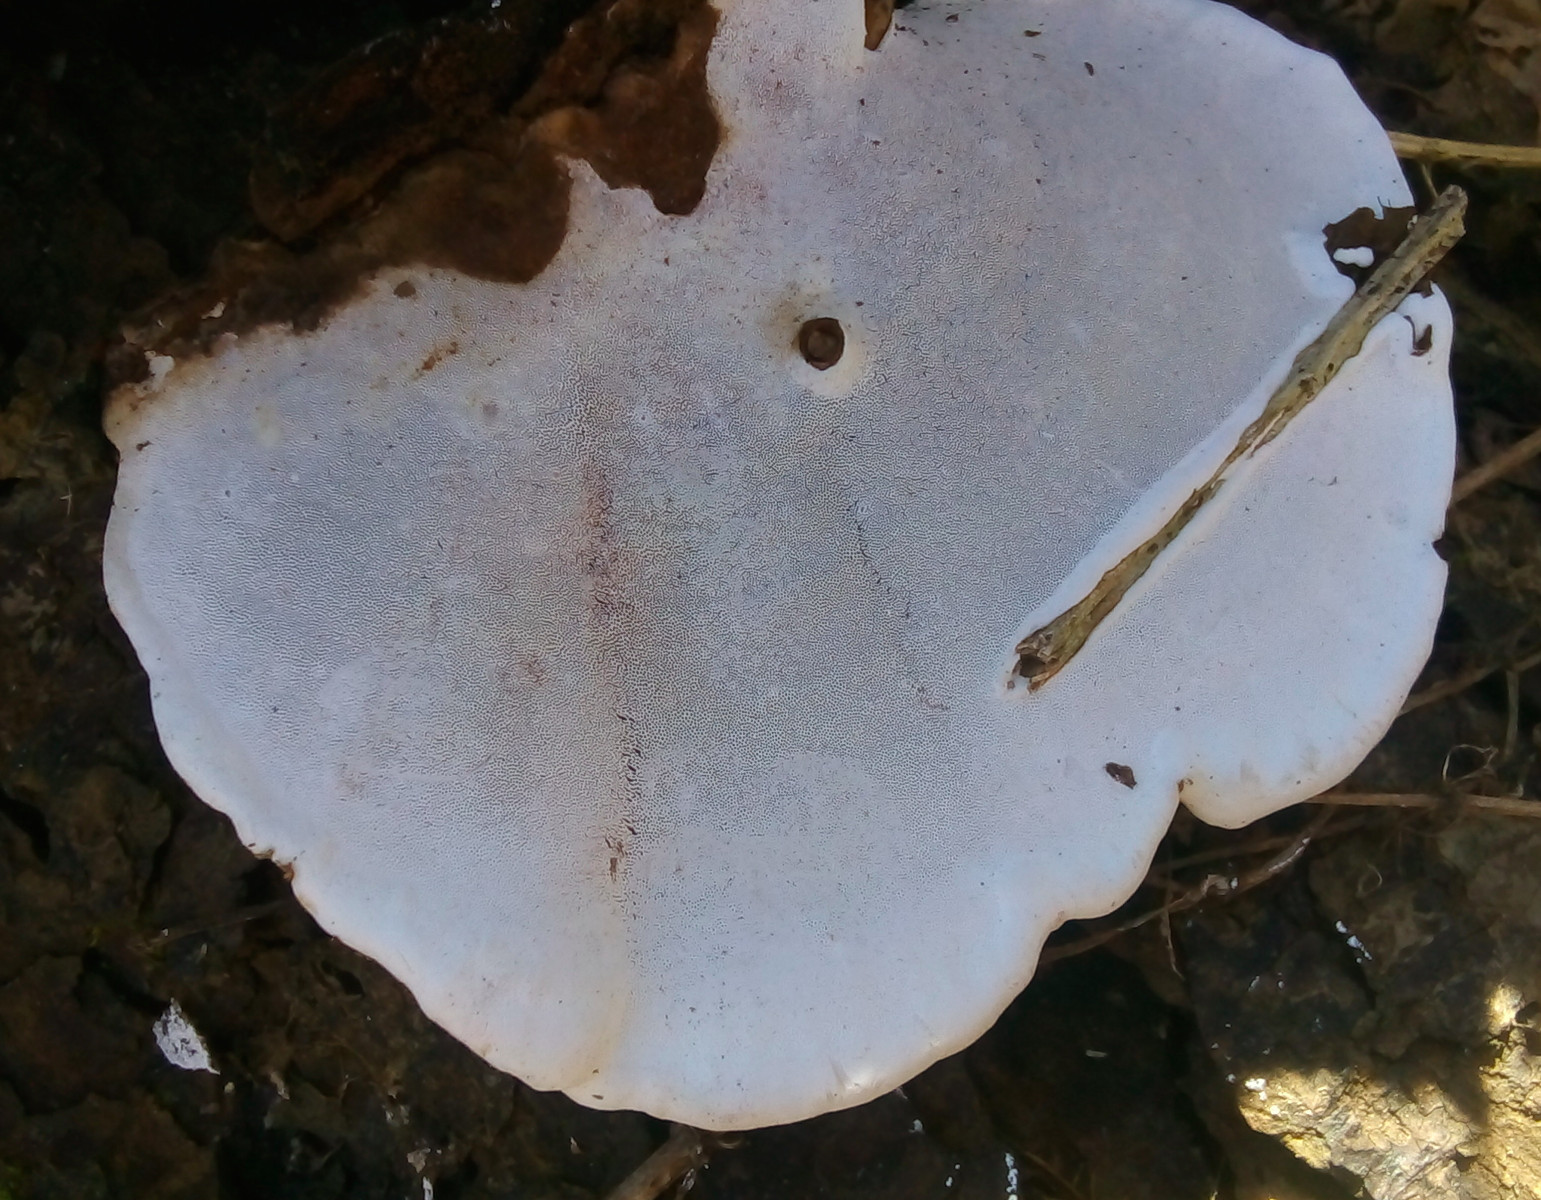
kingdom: Fungi
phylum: Basidiomycota
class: Agaricomycetes
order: Polyporales
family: Polyporaceae
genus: Ganoderma
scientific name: Ganoderma applanatum
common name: flad lakporesvamp
